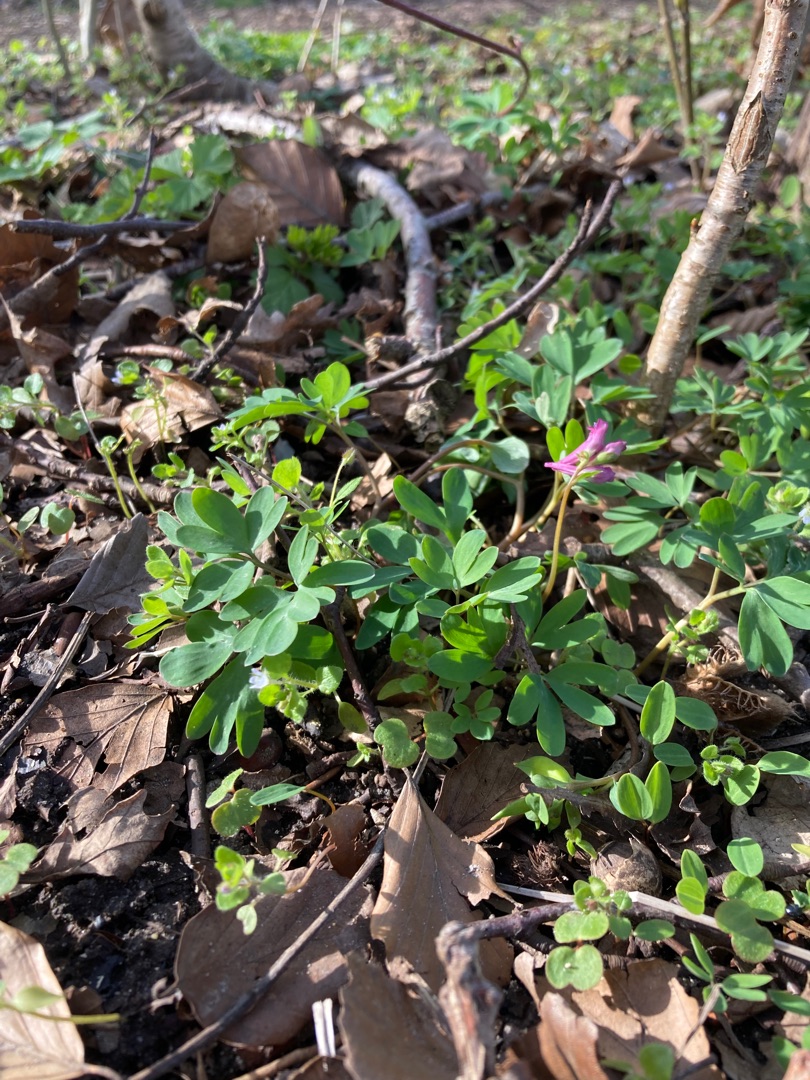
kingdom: Plantae
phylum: Tracheophyta
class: Magnoliopsida
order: Ranunculales
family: Papaveraceae
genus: Corydalis
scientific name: Corydalis intermedia
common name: Liden lærkespore
